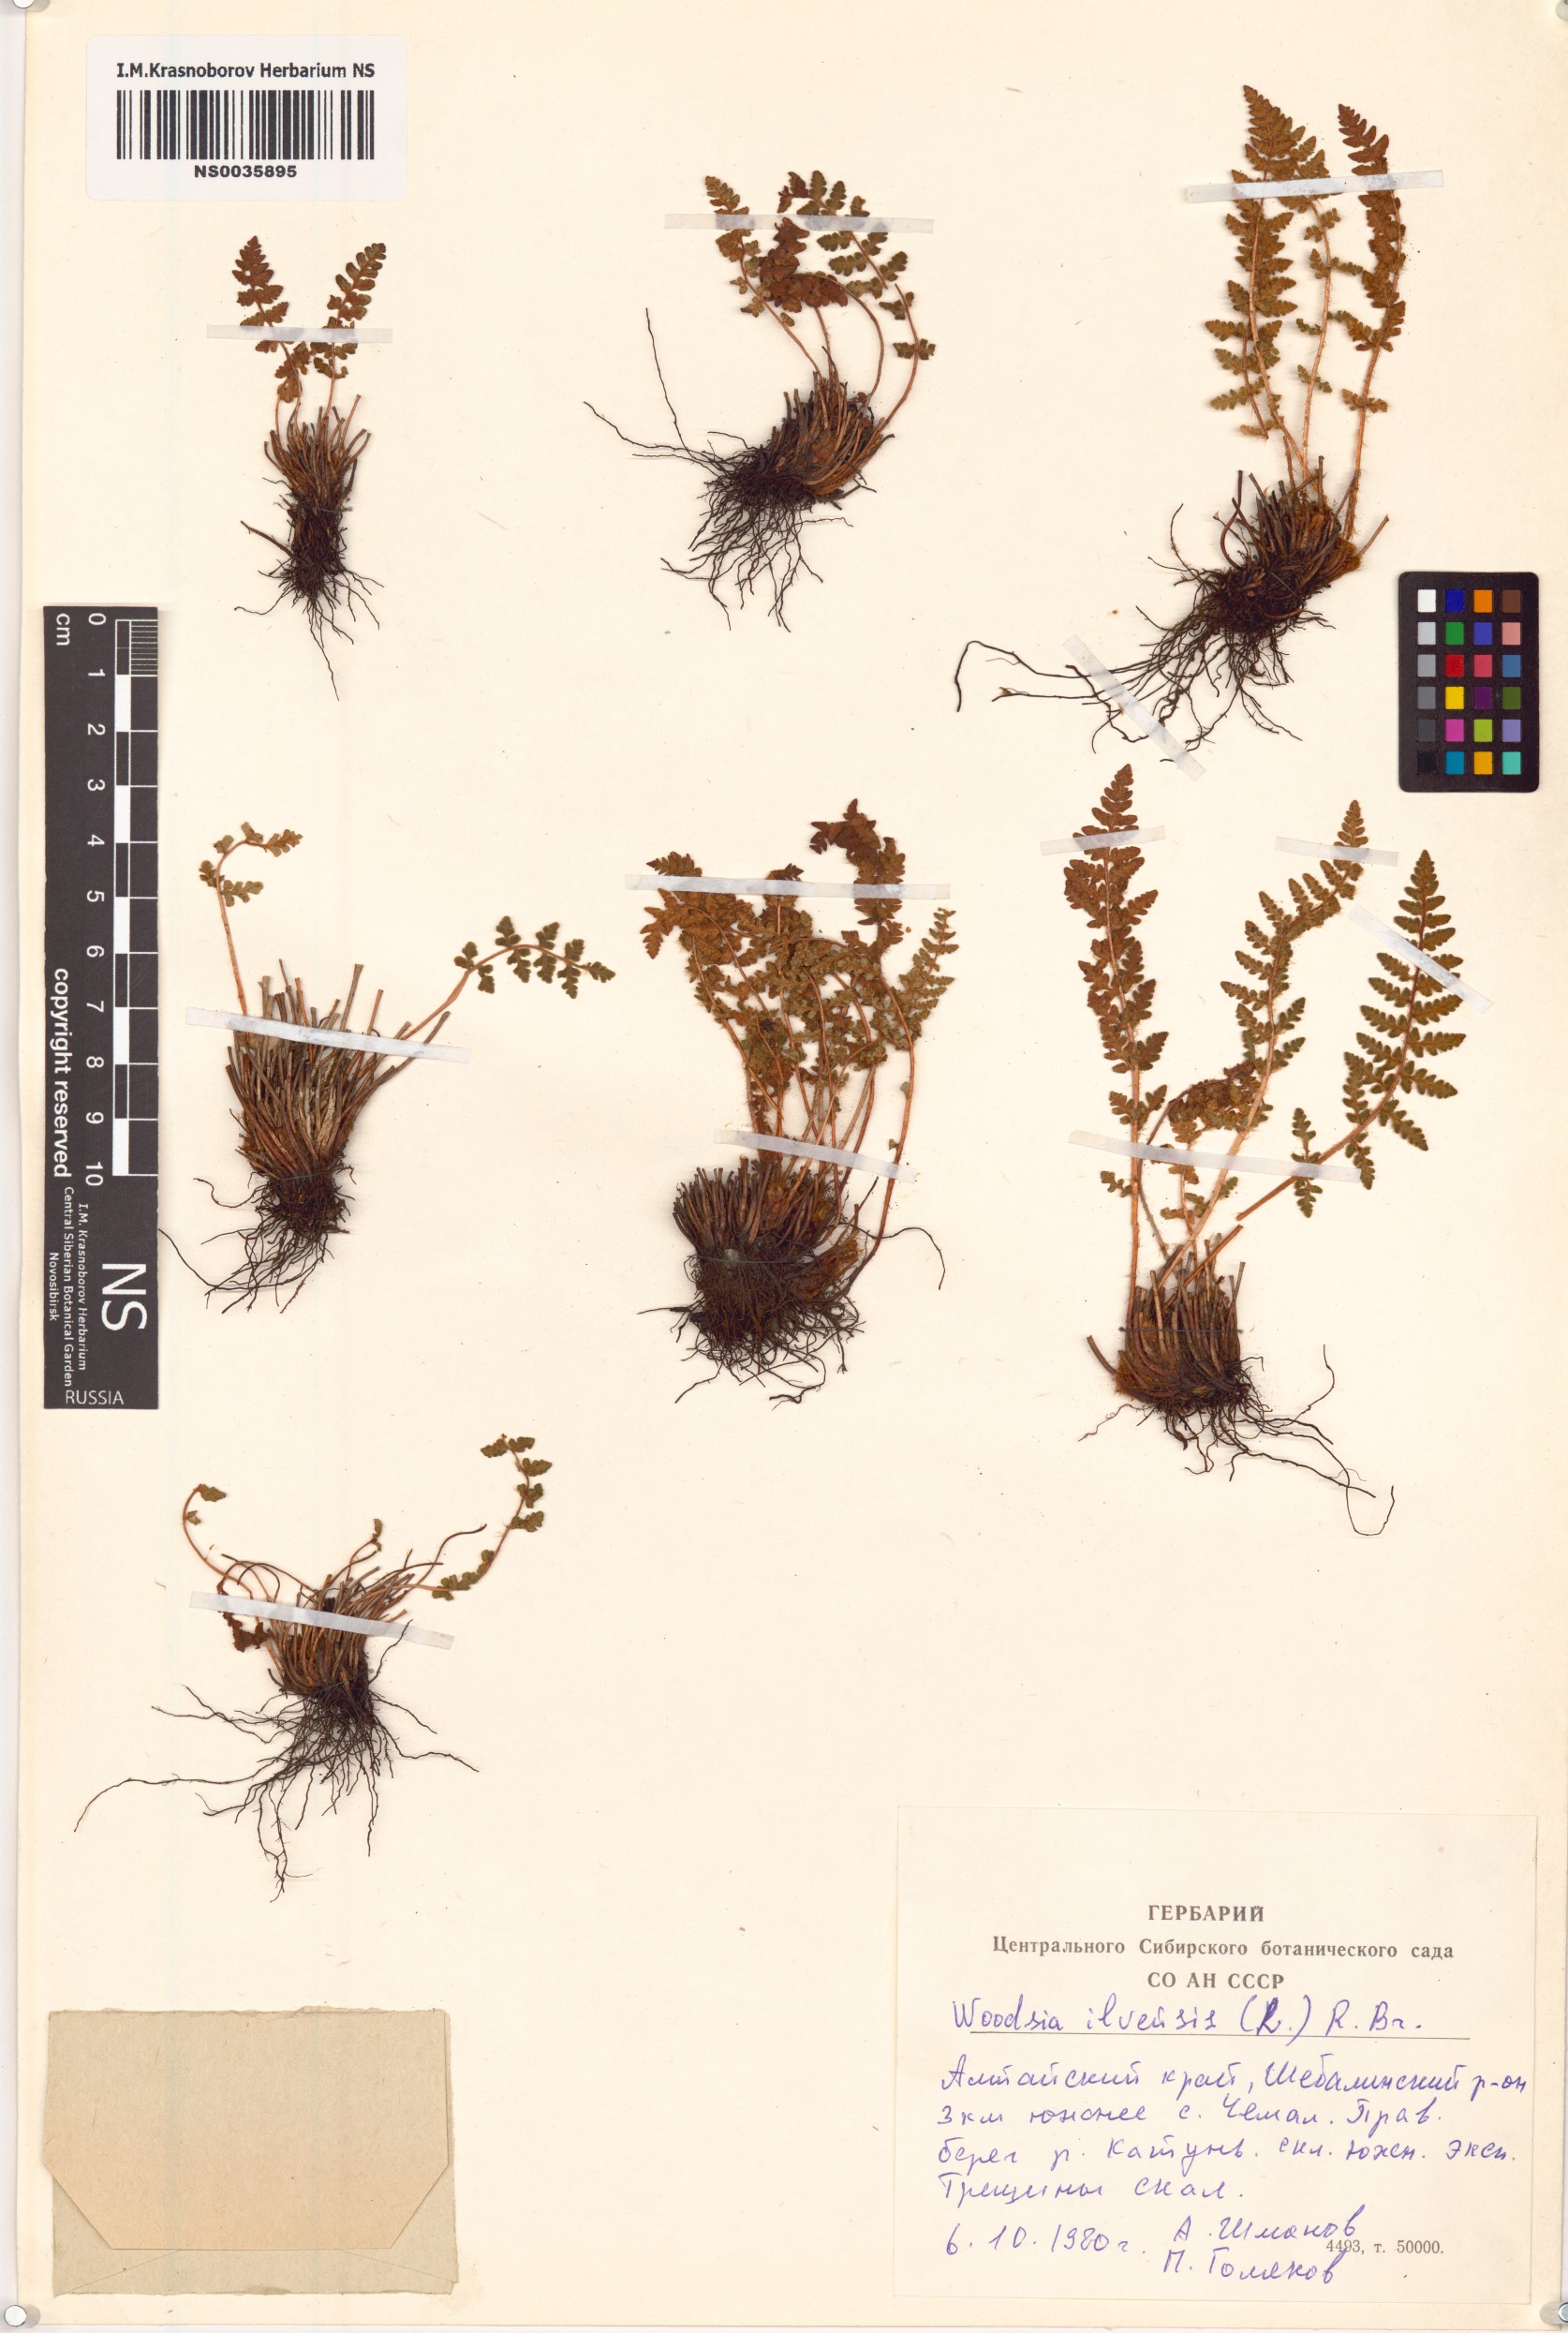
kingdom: Plantae
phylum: Tracheophyta
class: Polypodiopsida
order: Polypodiales
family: Woodsiaceae
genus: Woodsia
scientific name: Woodsia ilvensis
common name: Fragrant woodsia
